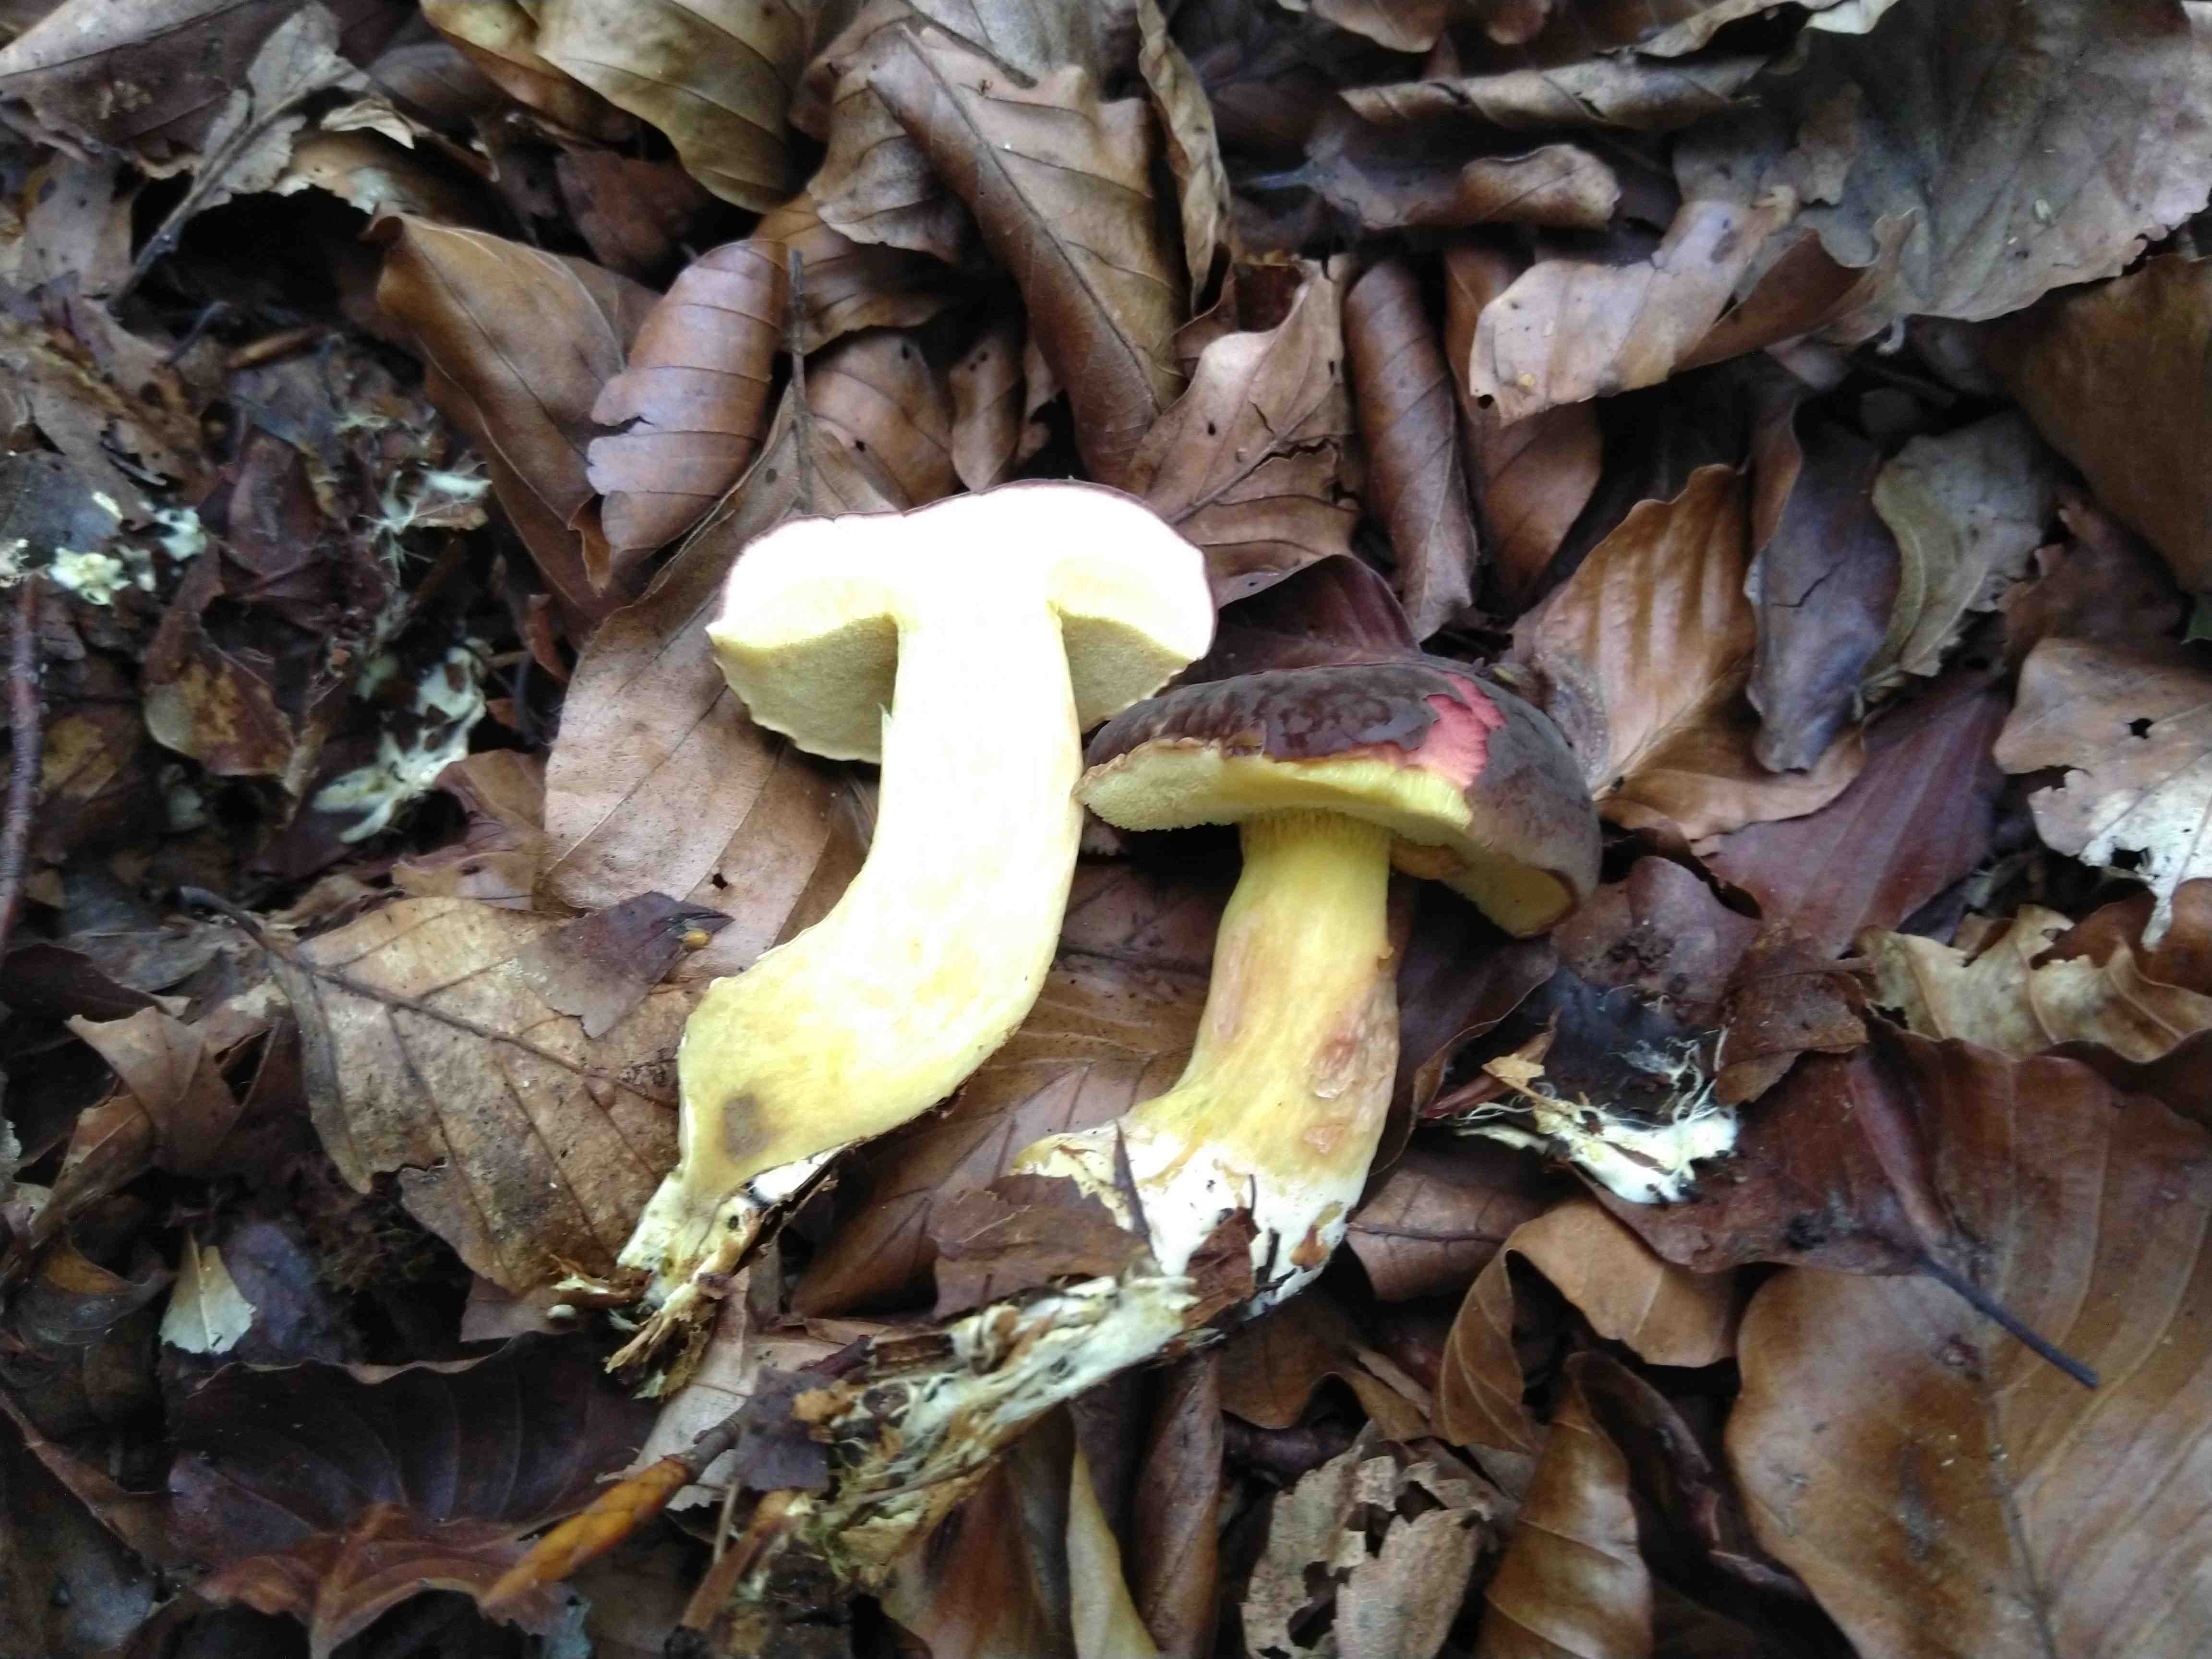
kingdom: Fungi
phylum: Basidiomycota
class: Agaricomycetes
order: Boletales
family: Boletaceae
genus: Xerocomellus
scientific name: Xerocomellus pruinatus
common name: dugget rørhat
